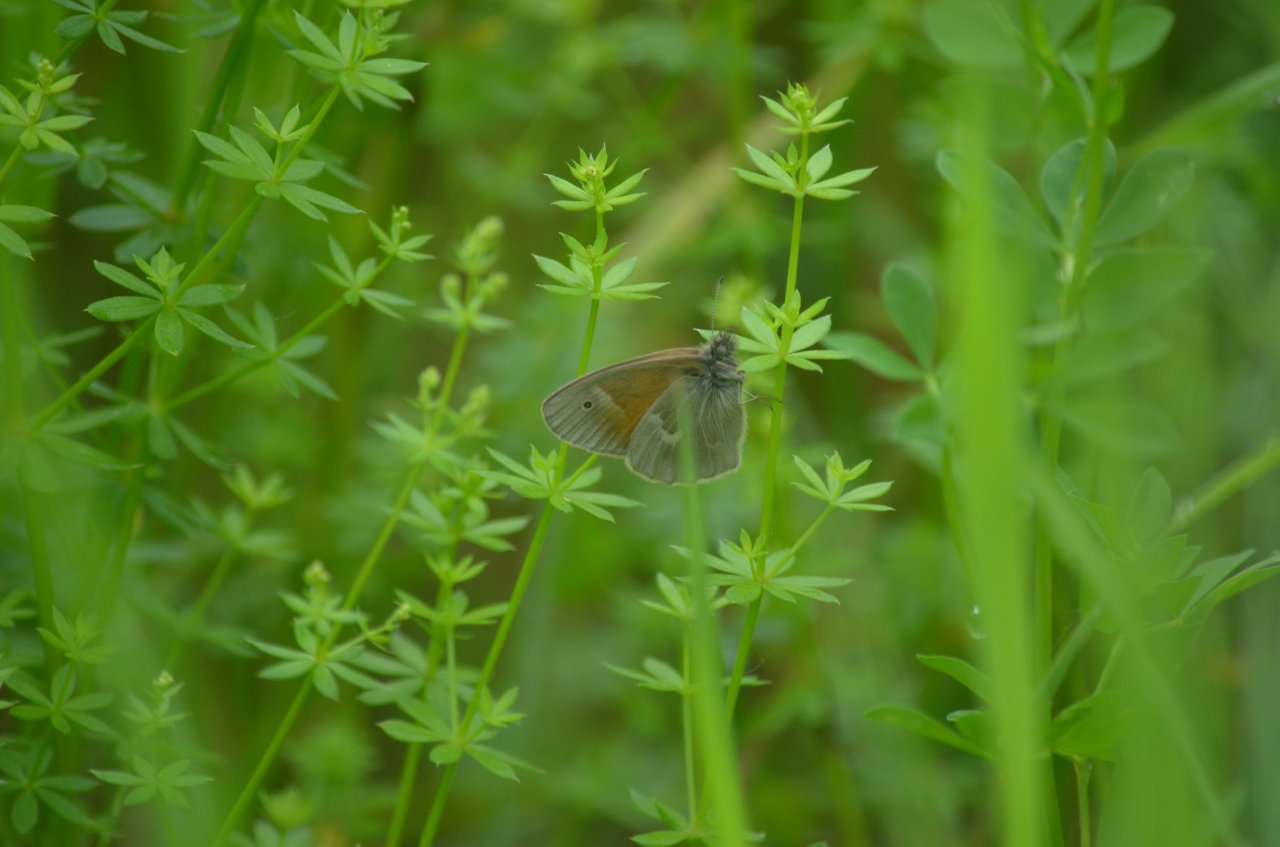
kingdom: Animalia
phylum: Arthropoda
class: Insecta
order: Lepidoptera
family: Nymphalidae
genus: Coenonympha
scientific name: Coenonympha tullia
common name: Large Heath
